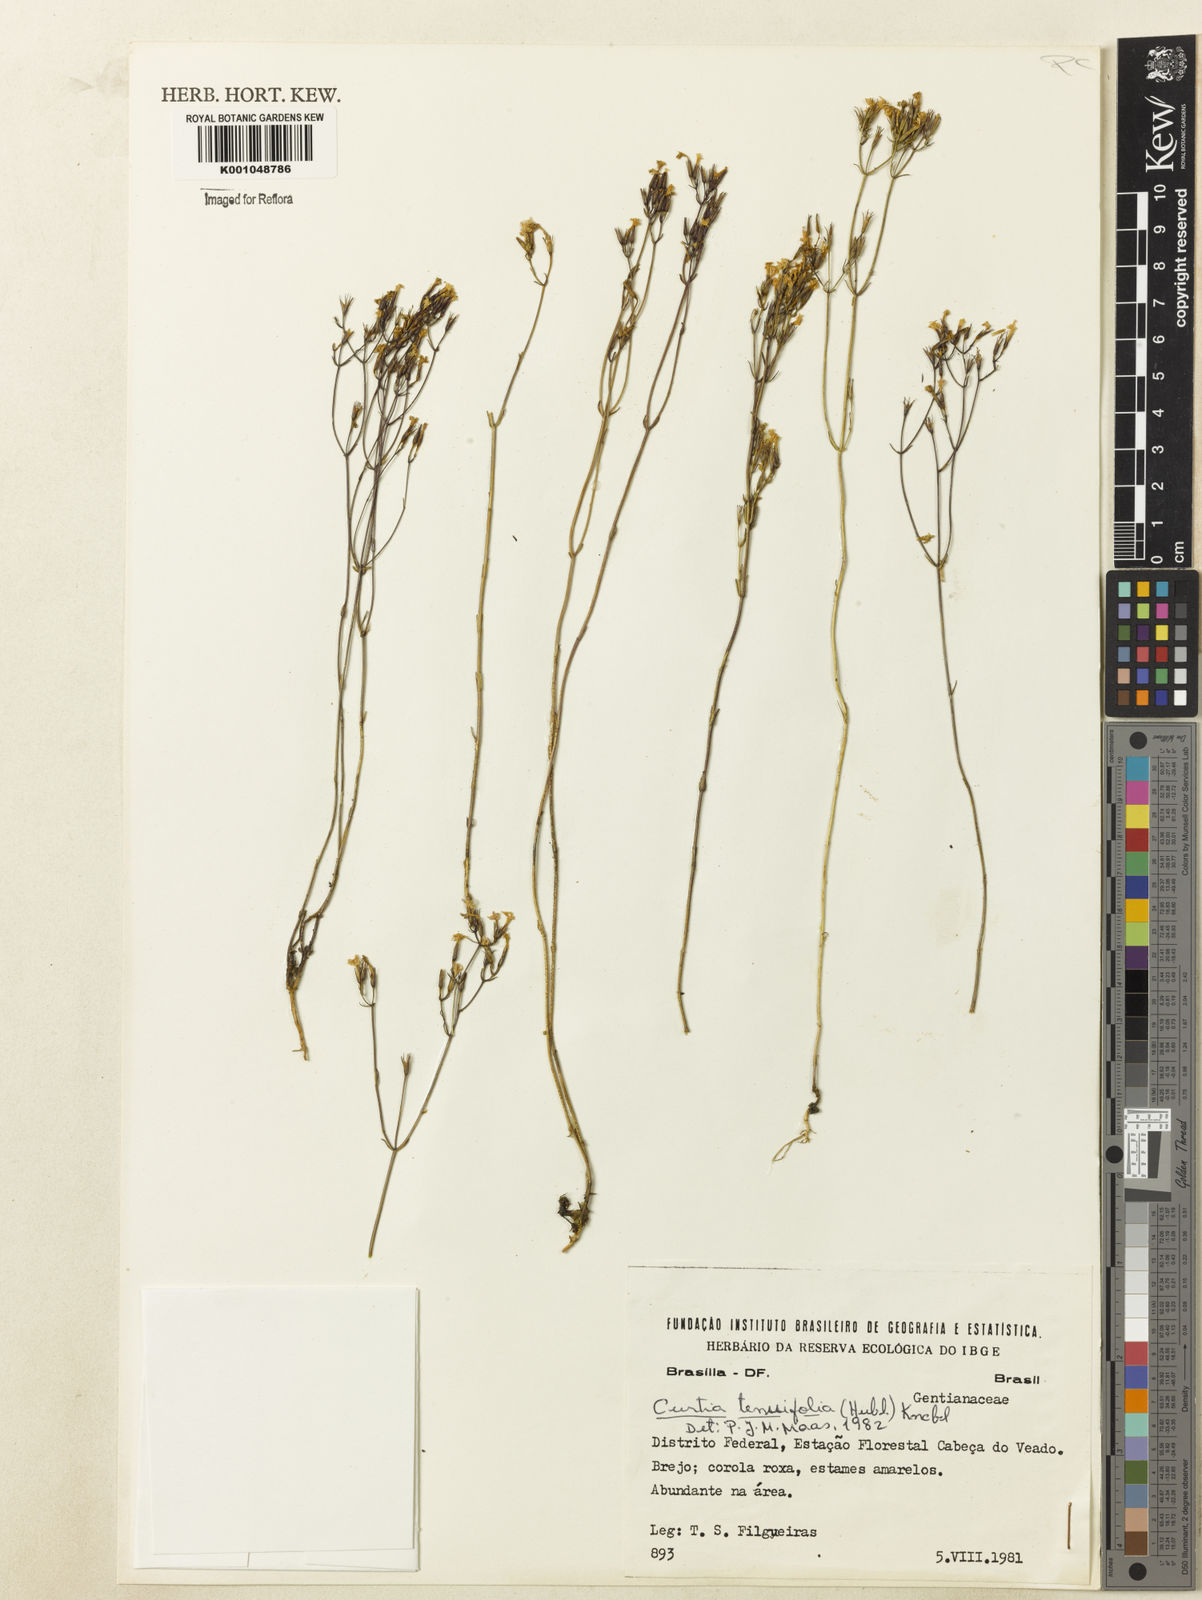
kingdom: Plantae
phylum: Tracheophyta
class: Magnoliopsida
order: Gentianales
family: Gentianaceae
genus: Curtia
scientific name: Curtia tenuifolia
